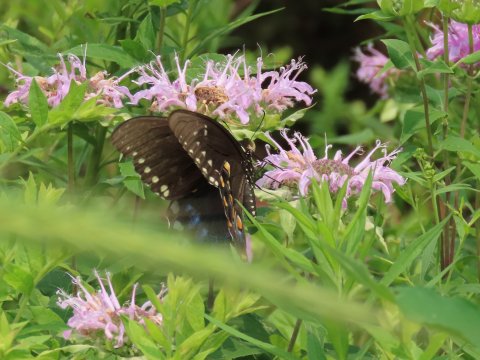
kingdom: Animalia
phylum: Arthropoda
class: Insecta
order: Lepidoptera
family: Papilionidae
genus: Pterourus
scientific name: Pterourus troilus
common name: Spicebush Swallowtail
